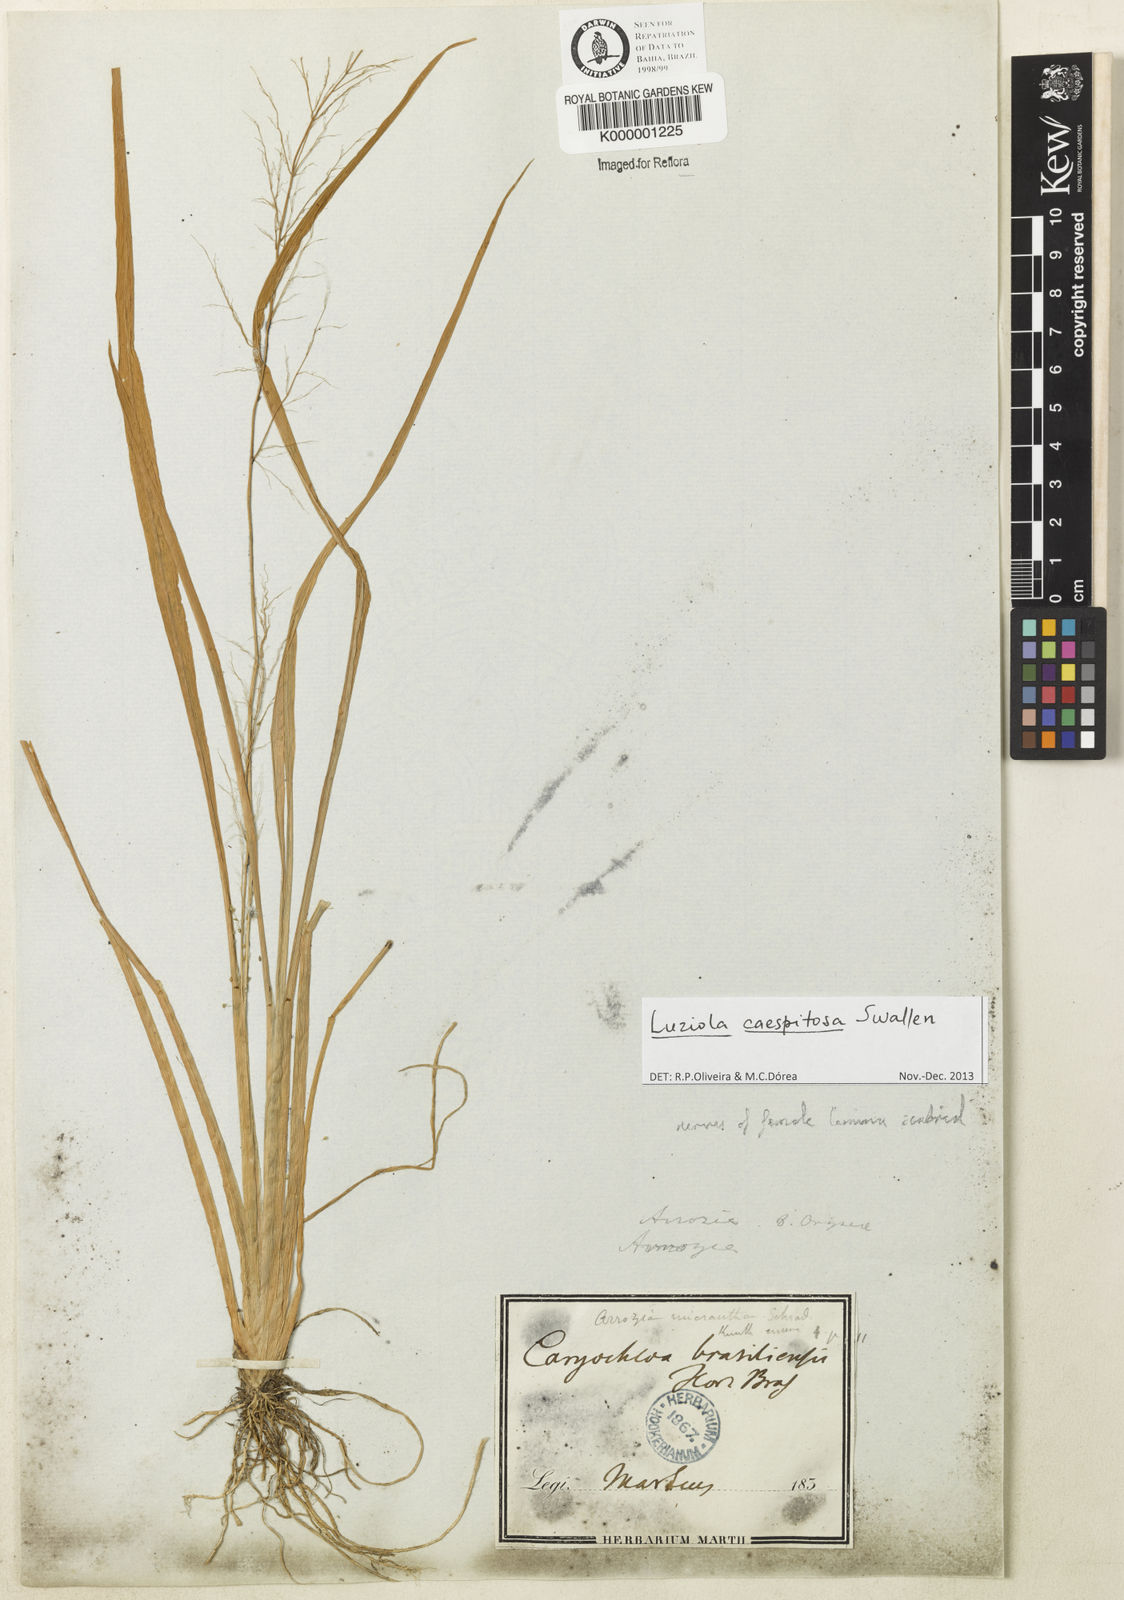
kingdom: Plantae
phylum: Tracheophyta
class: Liliopsida
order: Poales
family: Poaceae
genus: Luziola
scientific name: Luziola caespitosa
